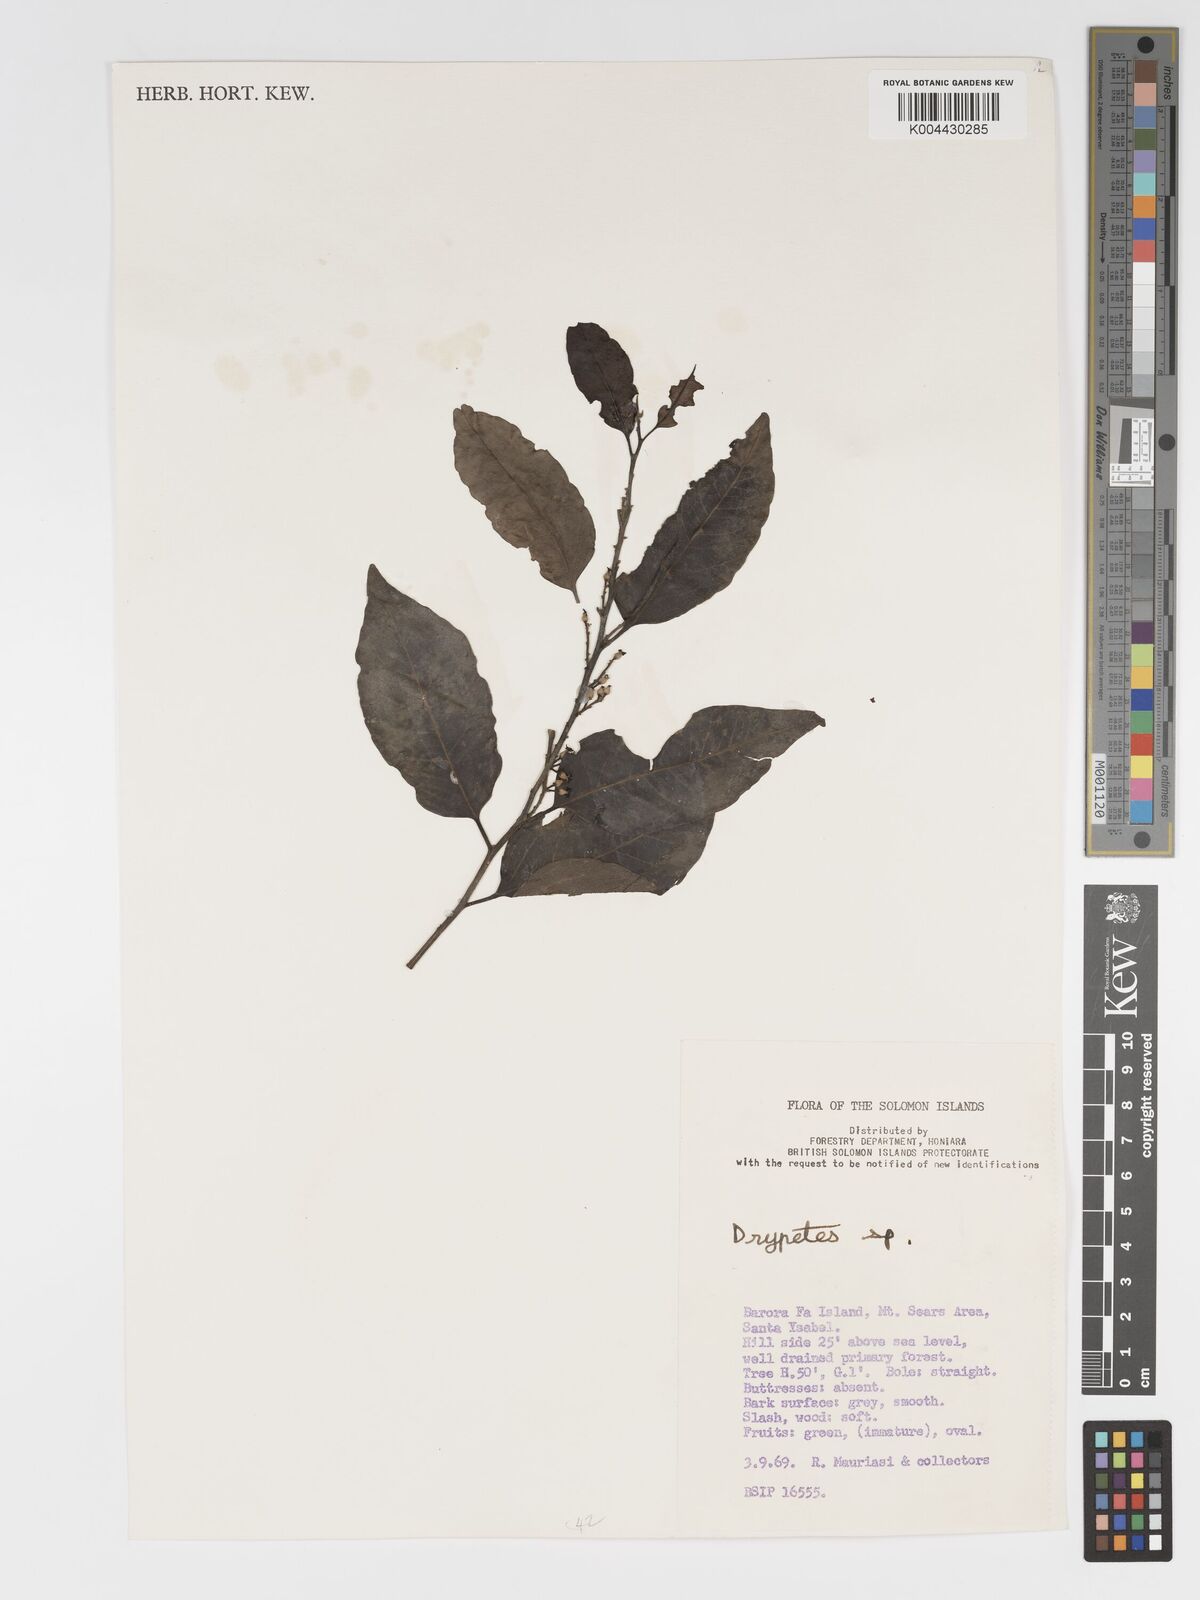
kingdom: Plantae
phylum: Tracheophyta
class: Magnoliopsida
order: Malpighiales
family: Putranjivaceae
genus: Putranjiva
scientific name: Putranjiva roxburghii
